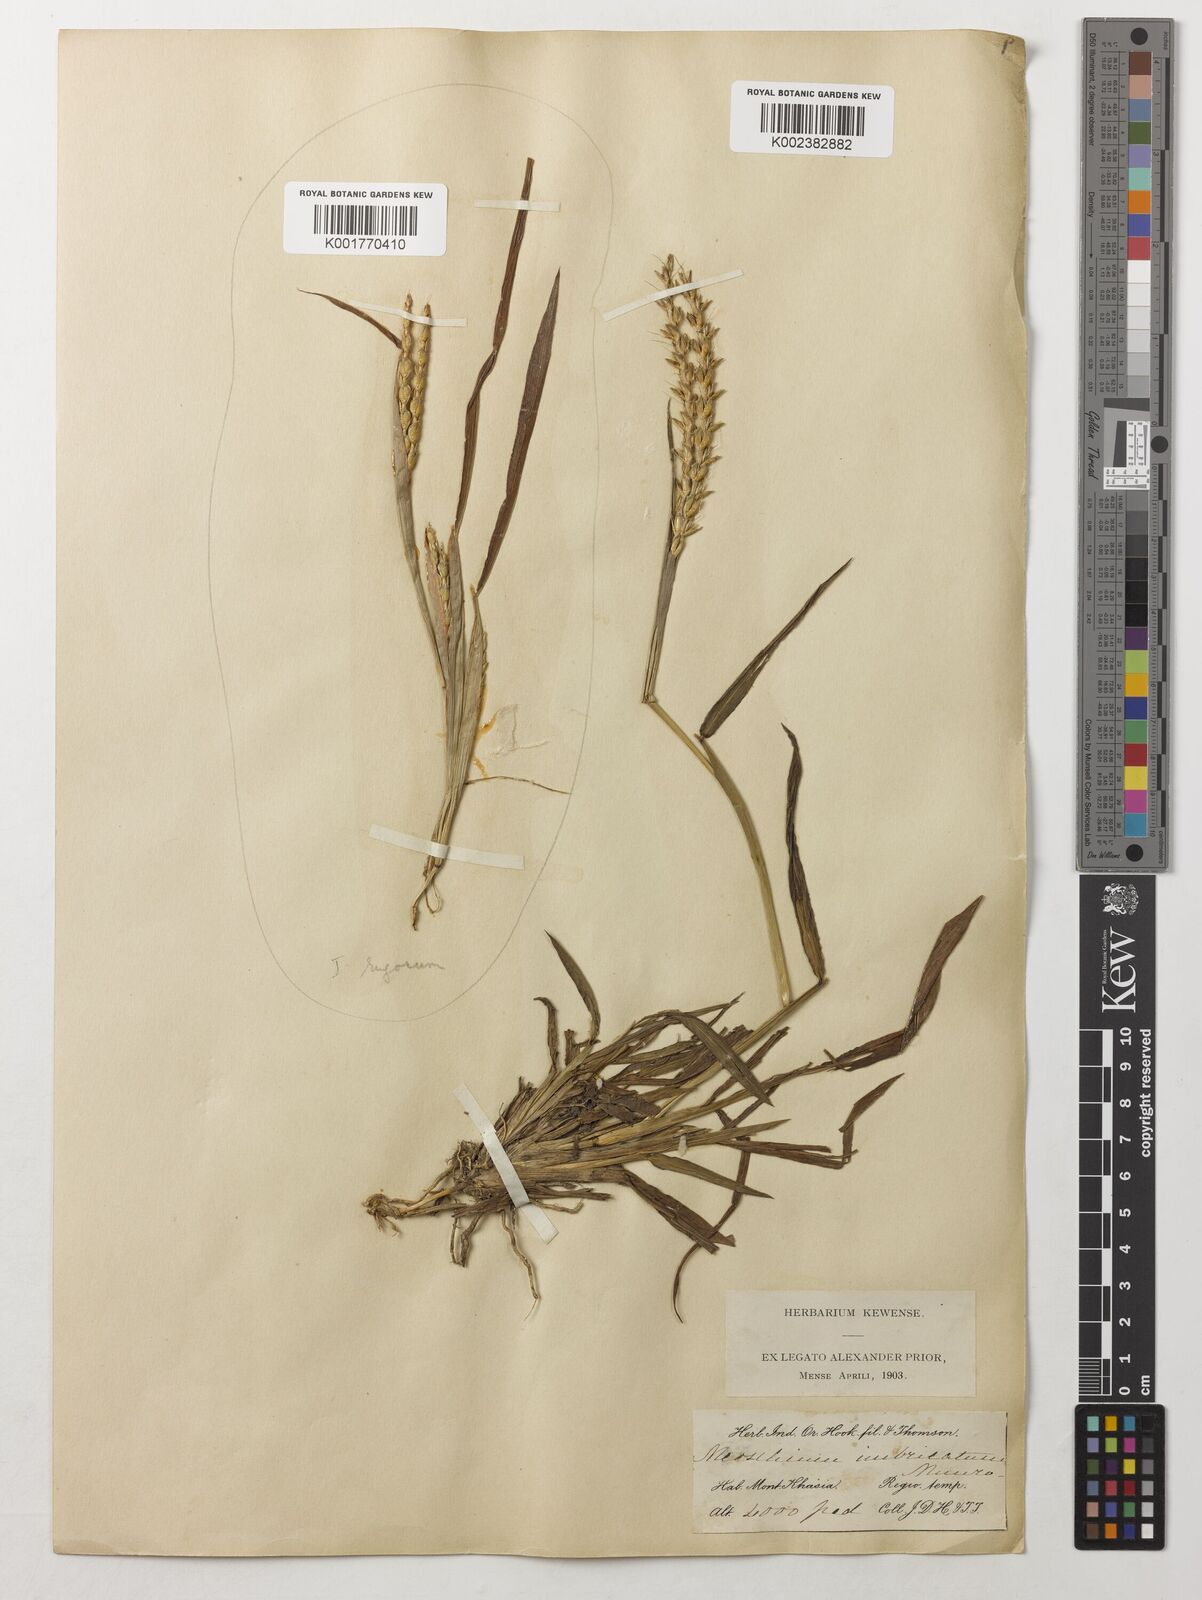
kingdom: Plantae
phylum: Tracheophyta
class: Liliopsida
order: Poales
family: Poaceae
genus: Ischaemum
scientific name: Ischaemum barbatum
